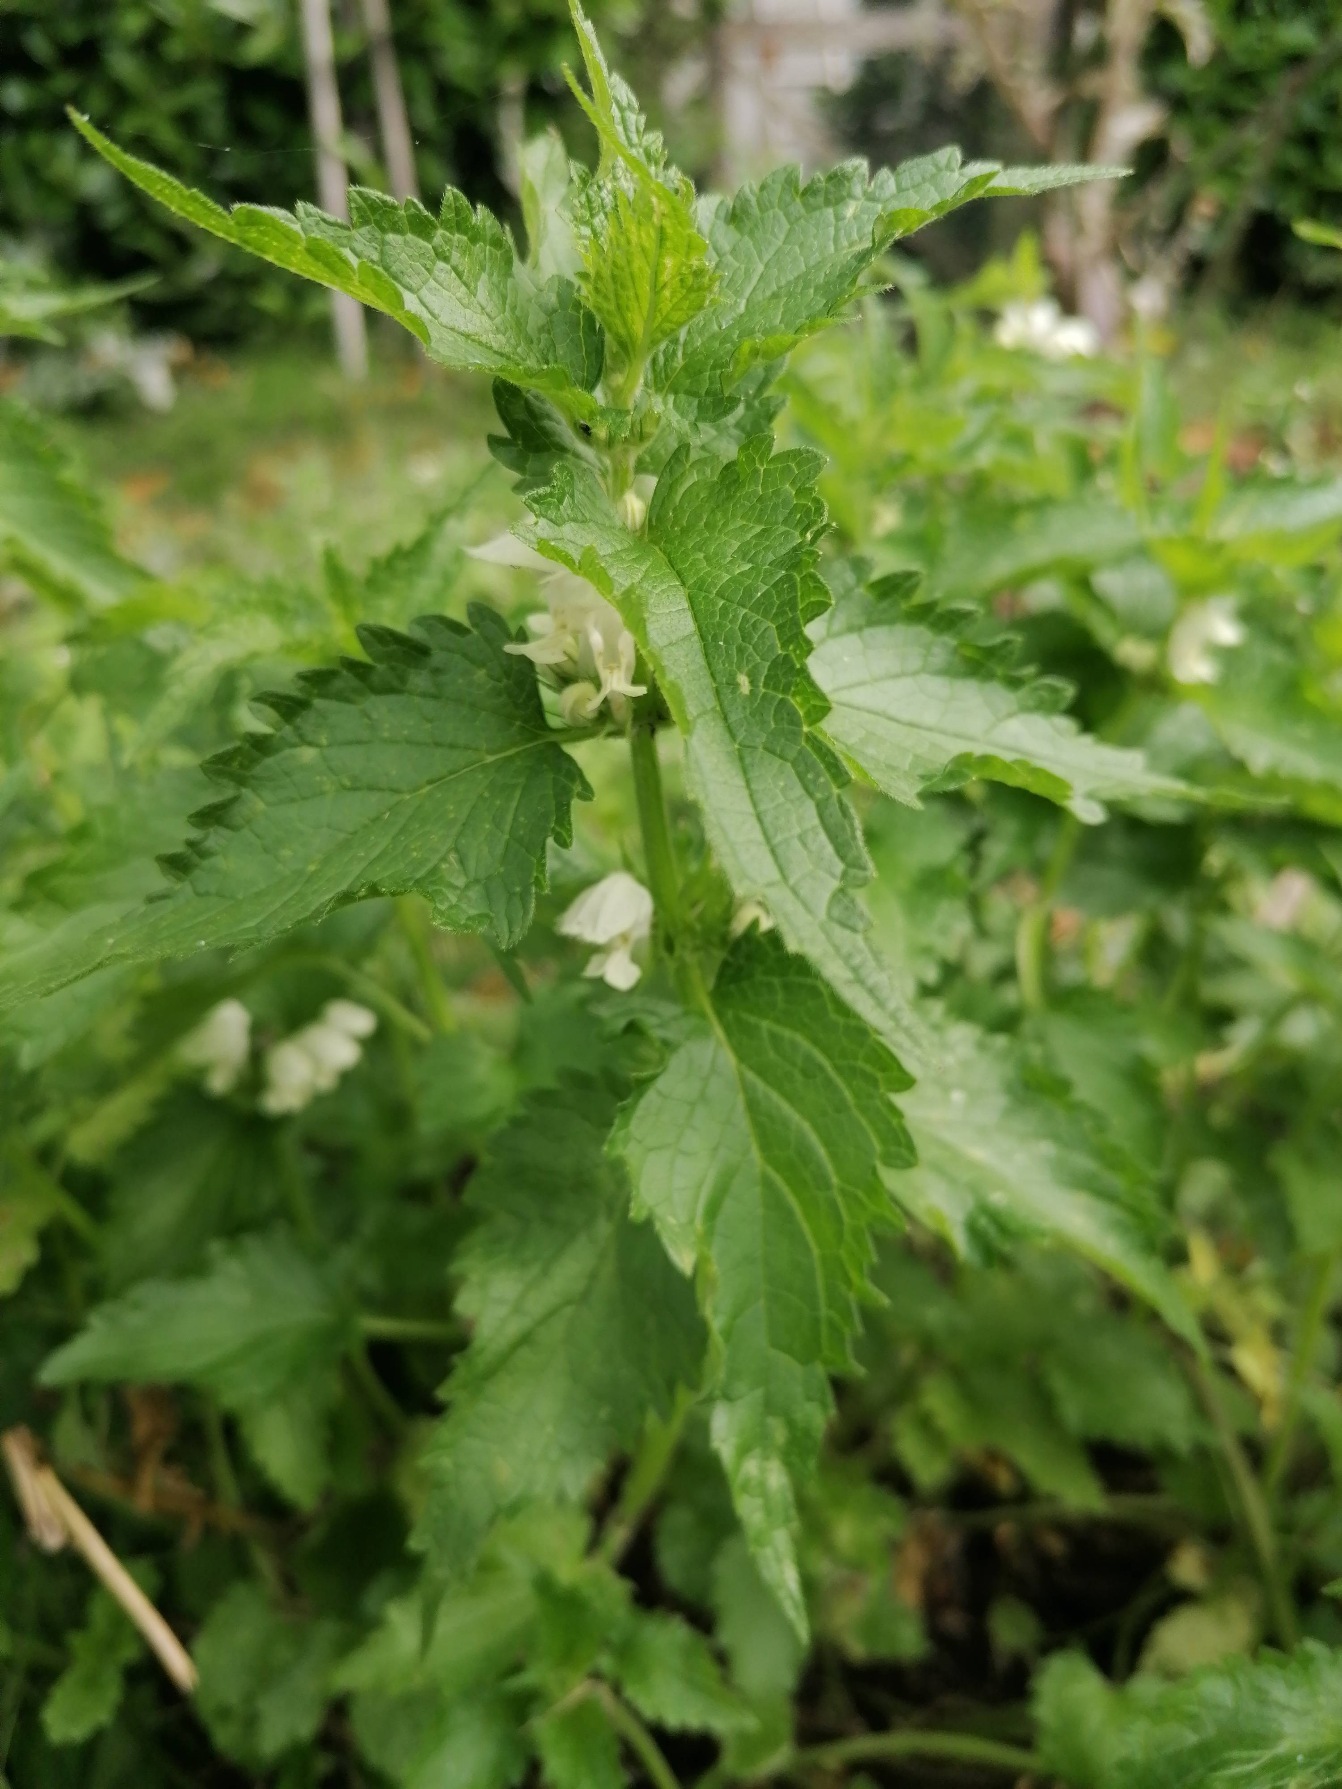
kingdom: Plantae
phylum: Tracheophyta
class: Magnoliopsida
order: Lamiales
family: Lamiaceae
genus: Lamium
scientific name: Lamium album
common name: Døvnælde
